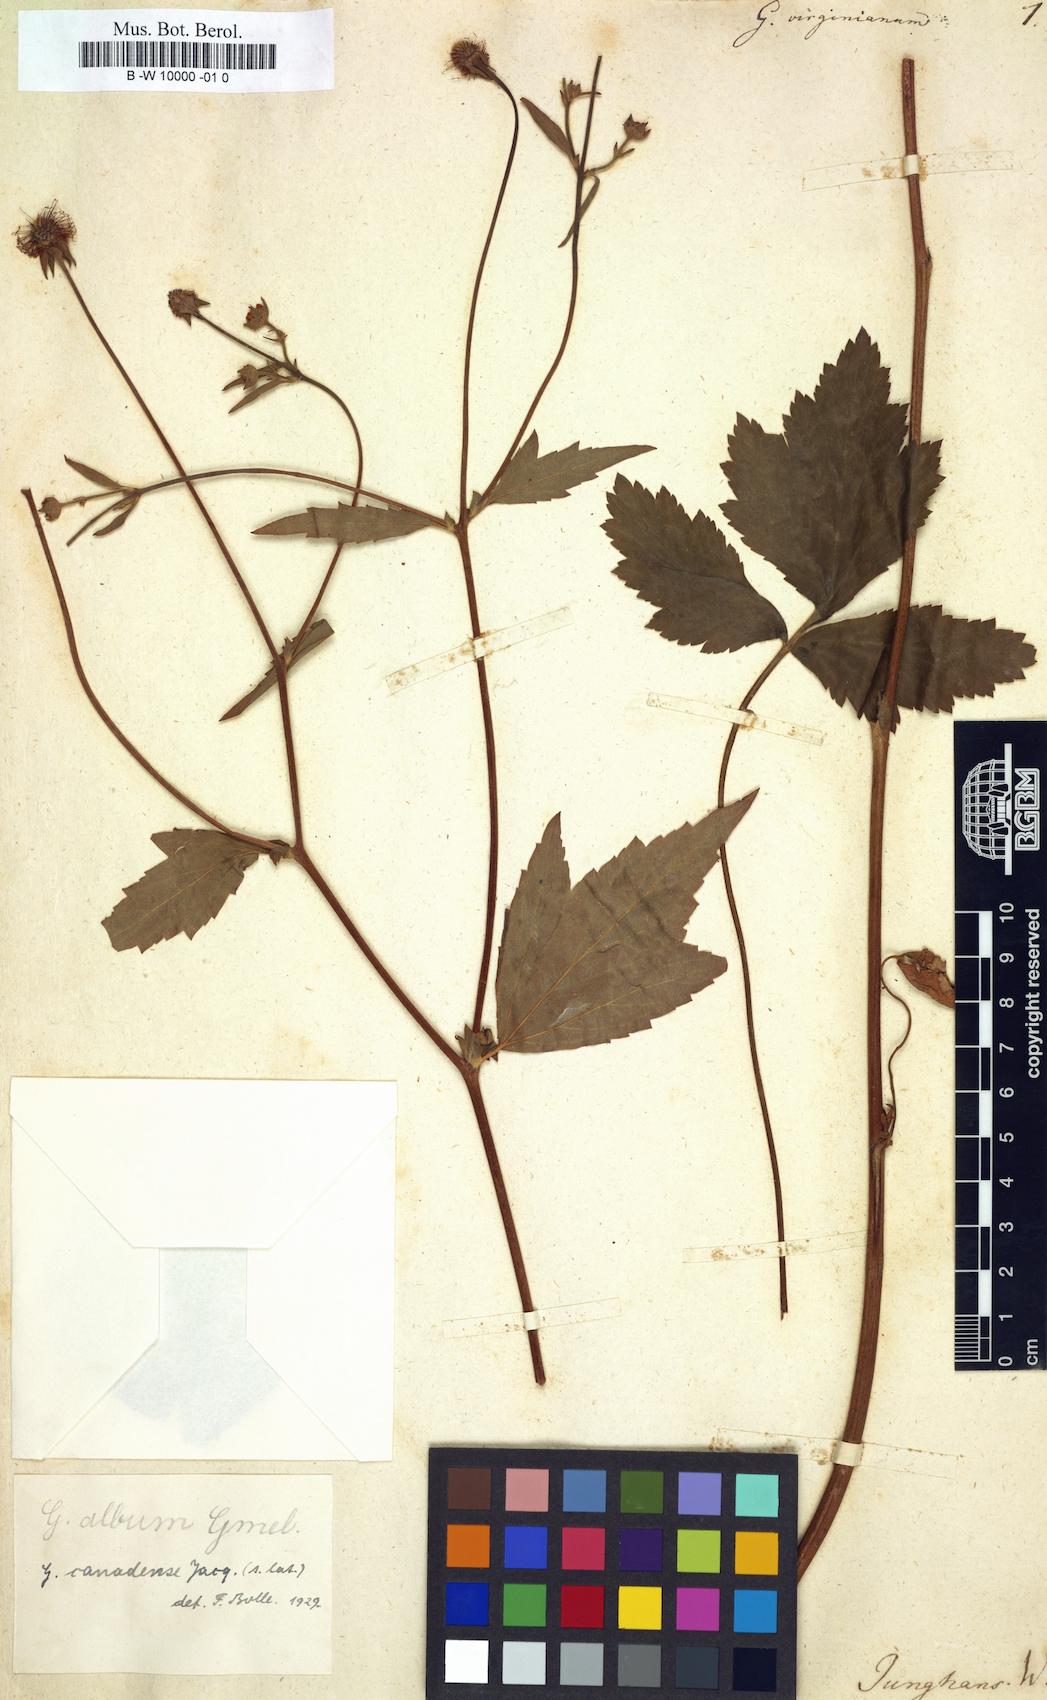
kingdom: Plantae
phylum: Tracheophyta
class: Magnoliopsida
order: Rosales
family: Rosaceae
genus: Geum
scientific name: Geum virginianum
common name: Cream avens
